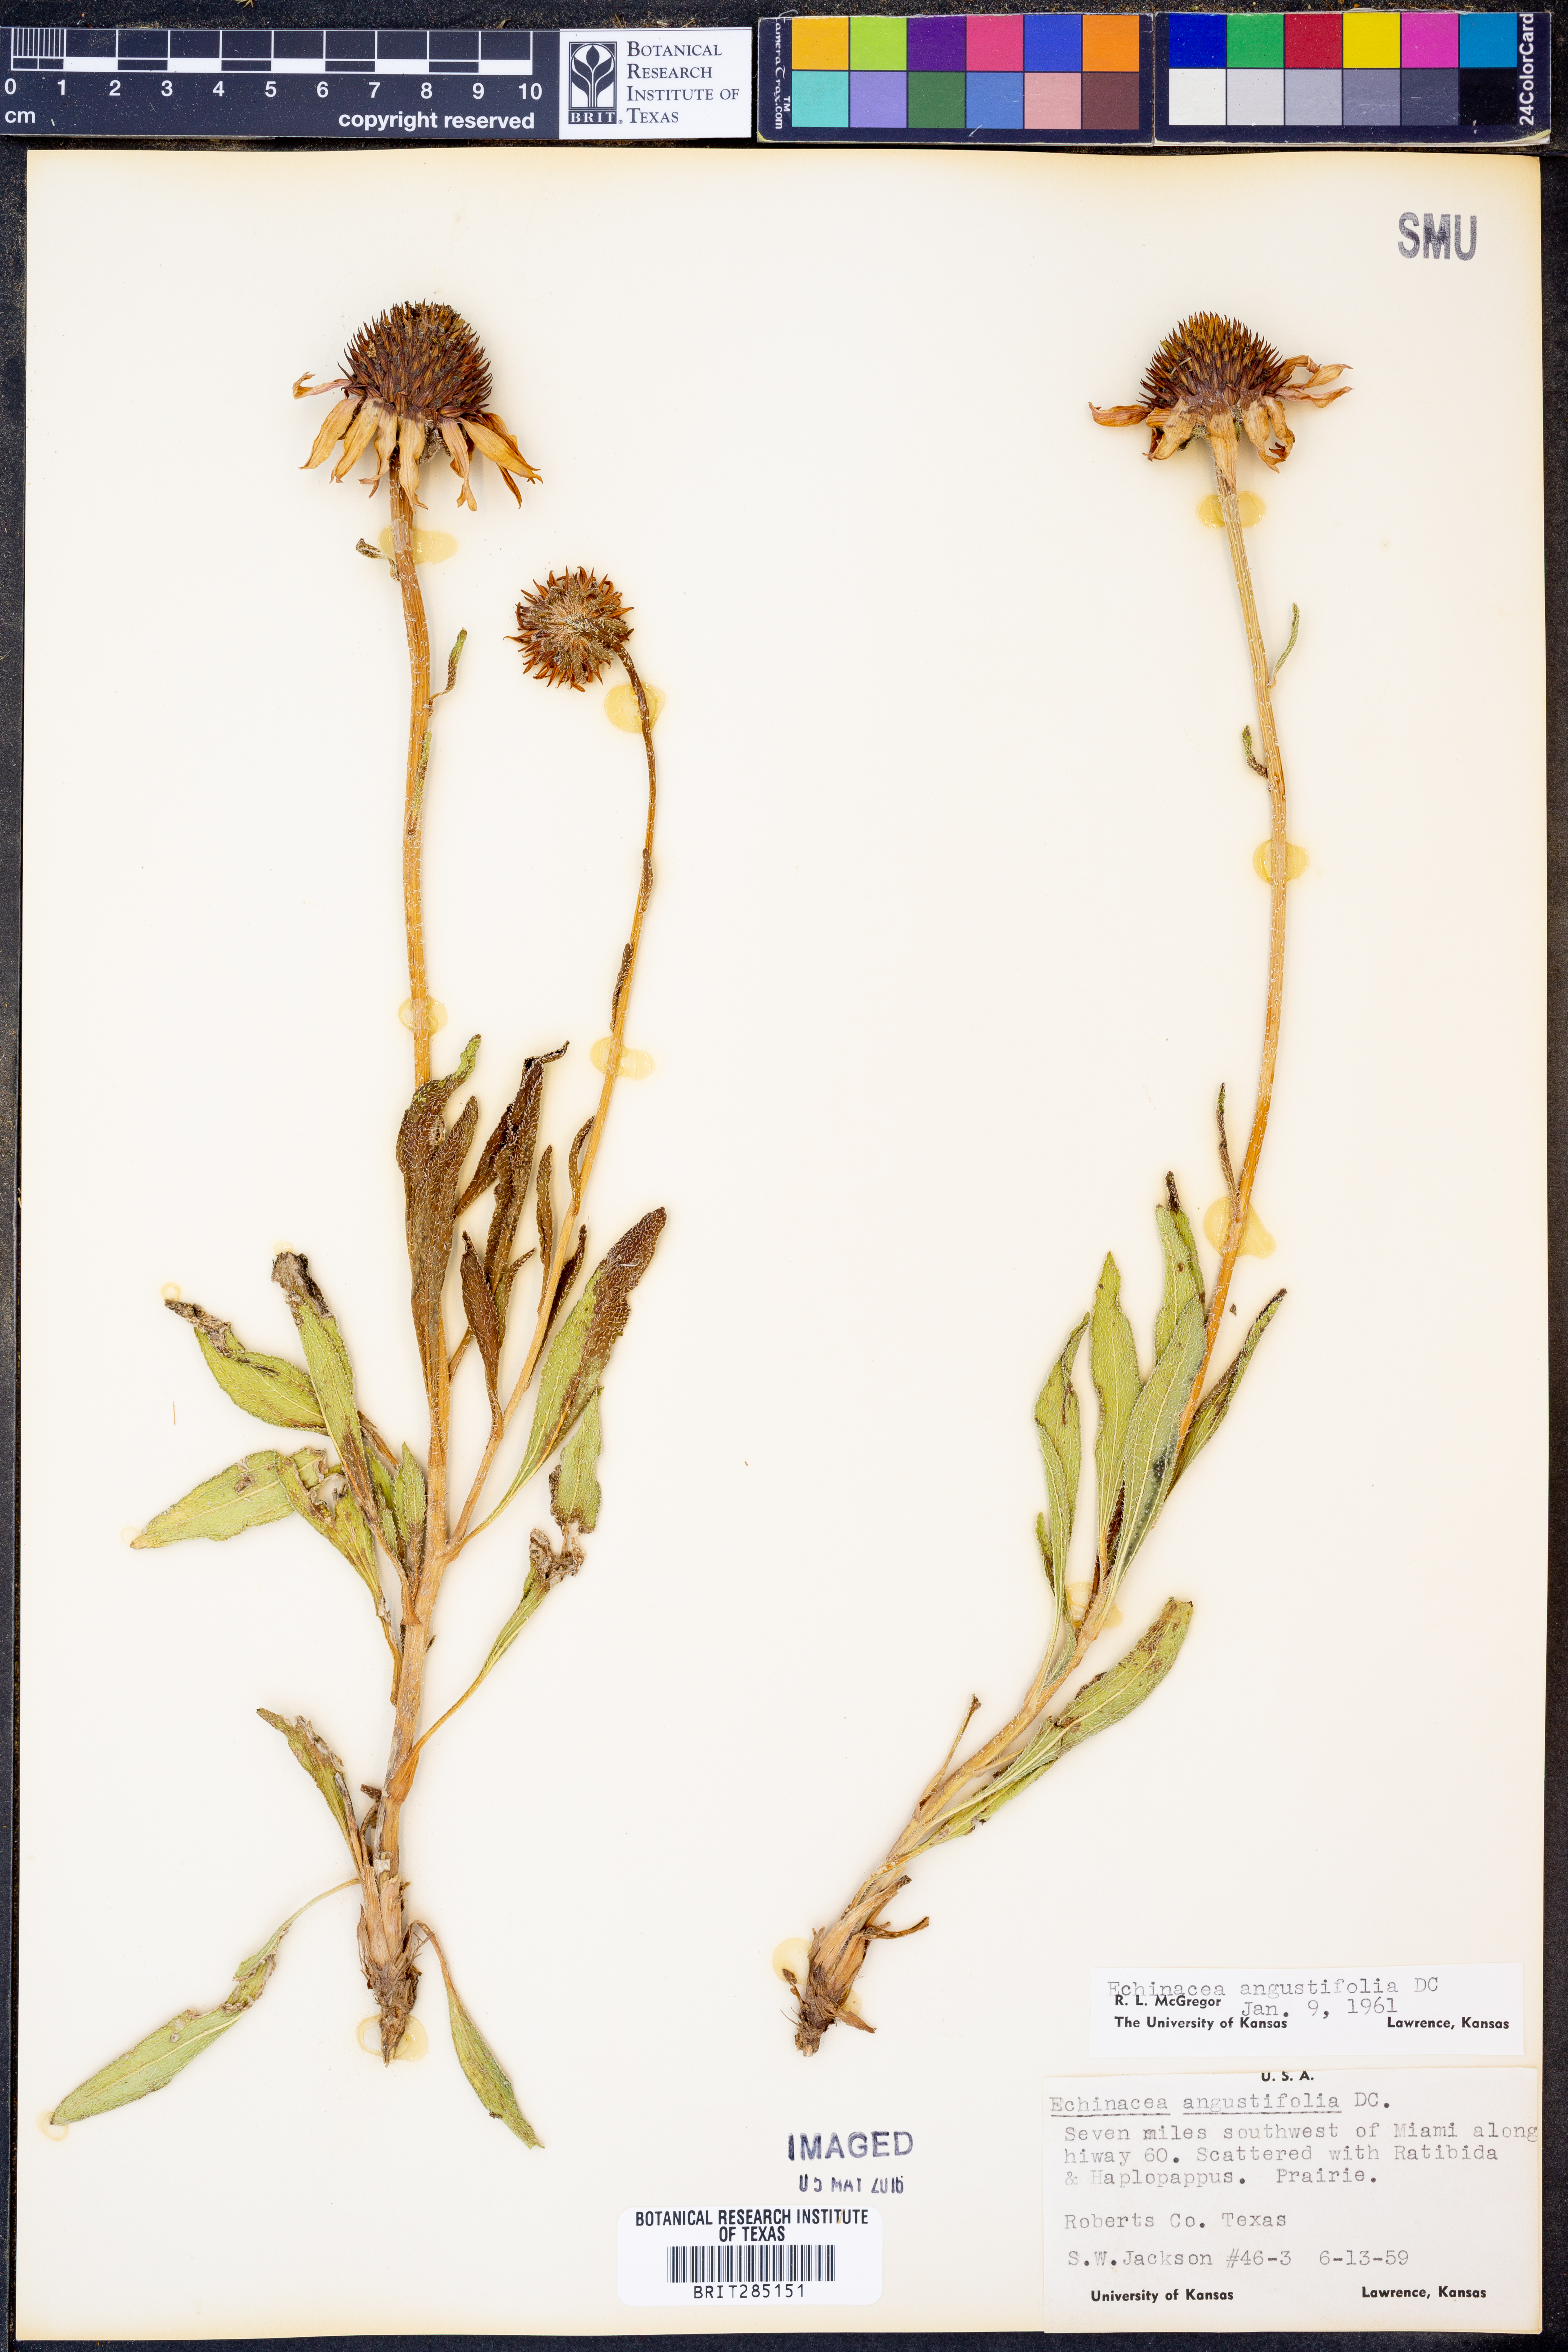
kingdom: Plantae
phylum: Tracheophyta
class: Magnoliopsida
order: Asterales
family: Asteraceae
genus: Echinacea
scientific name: Echinacea angustifolia
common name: Black-sampson echinacea
